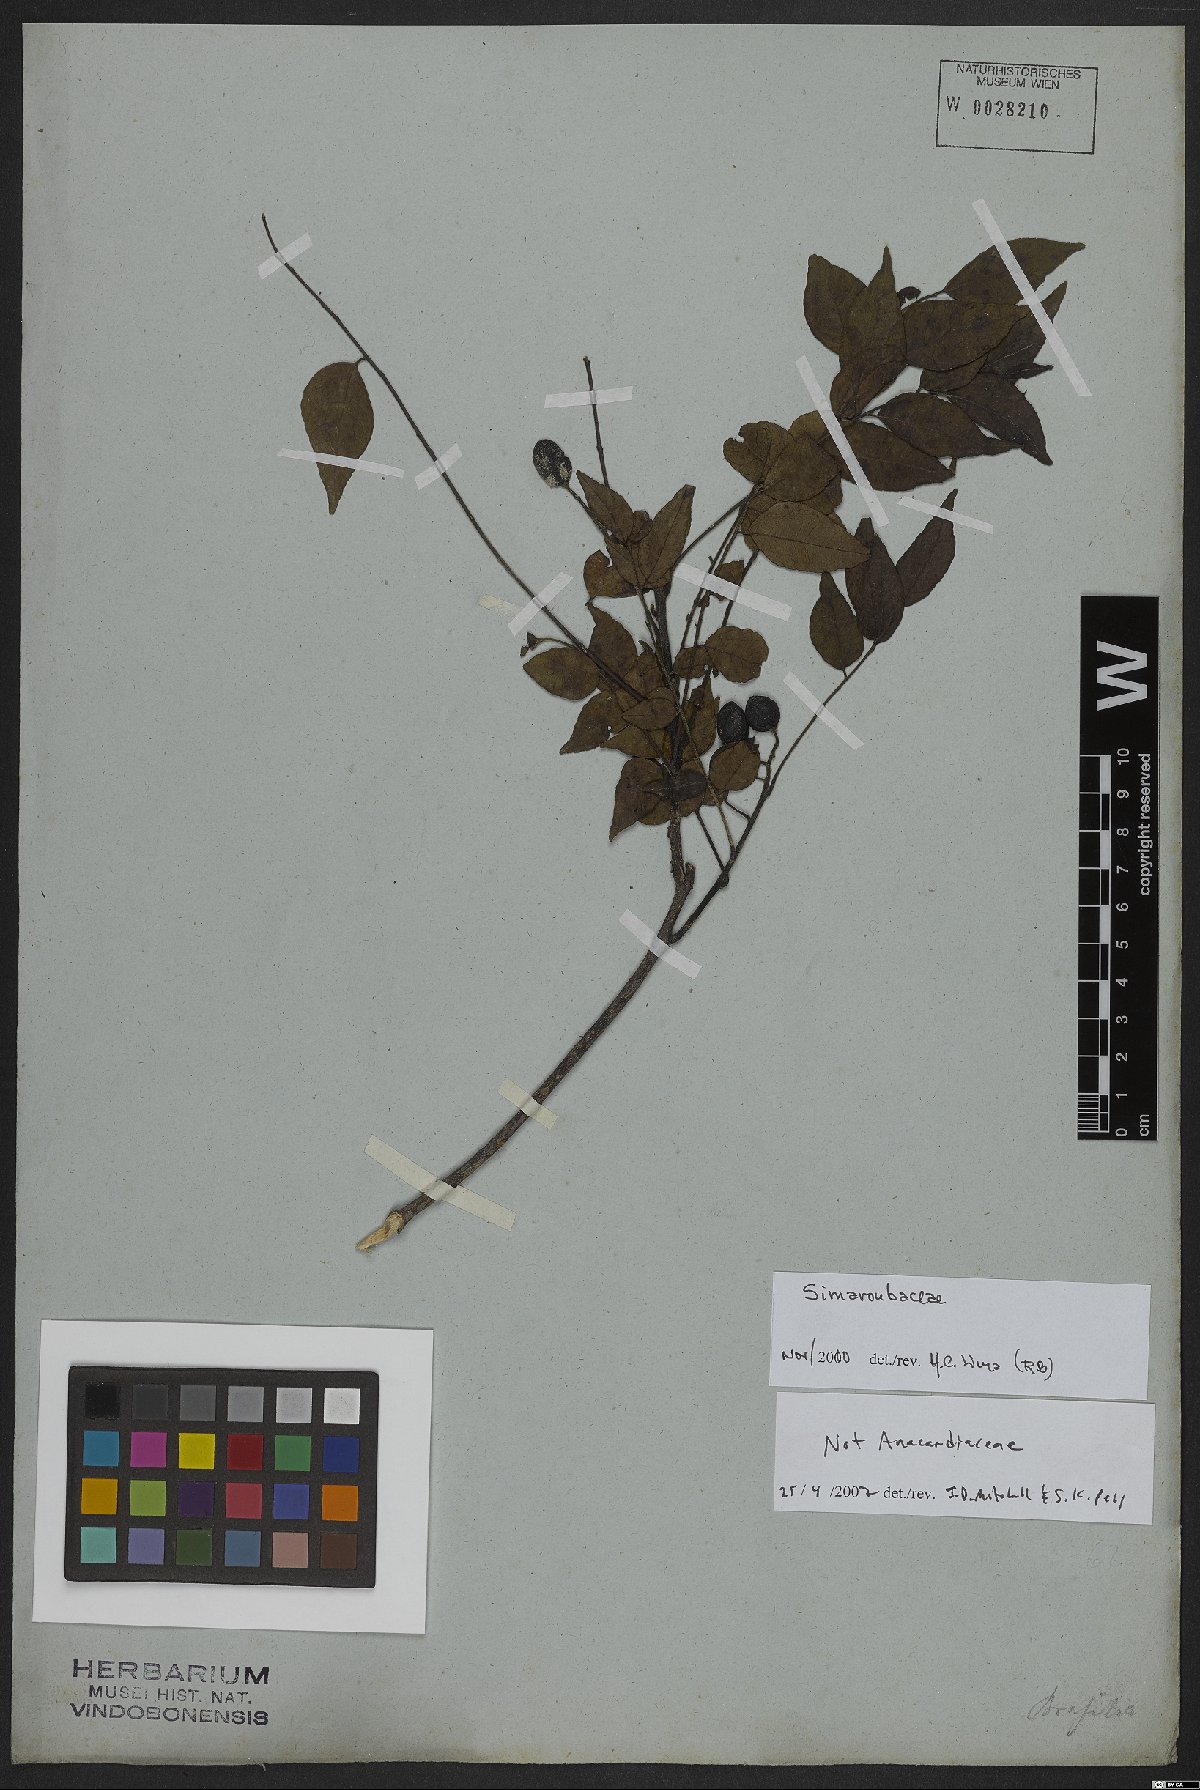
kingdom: Plantae
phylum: Tracheophyta
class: Magnoliopsida
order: Sapindales
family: Simaroubaceae
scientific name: Simaroubaceae
